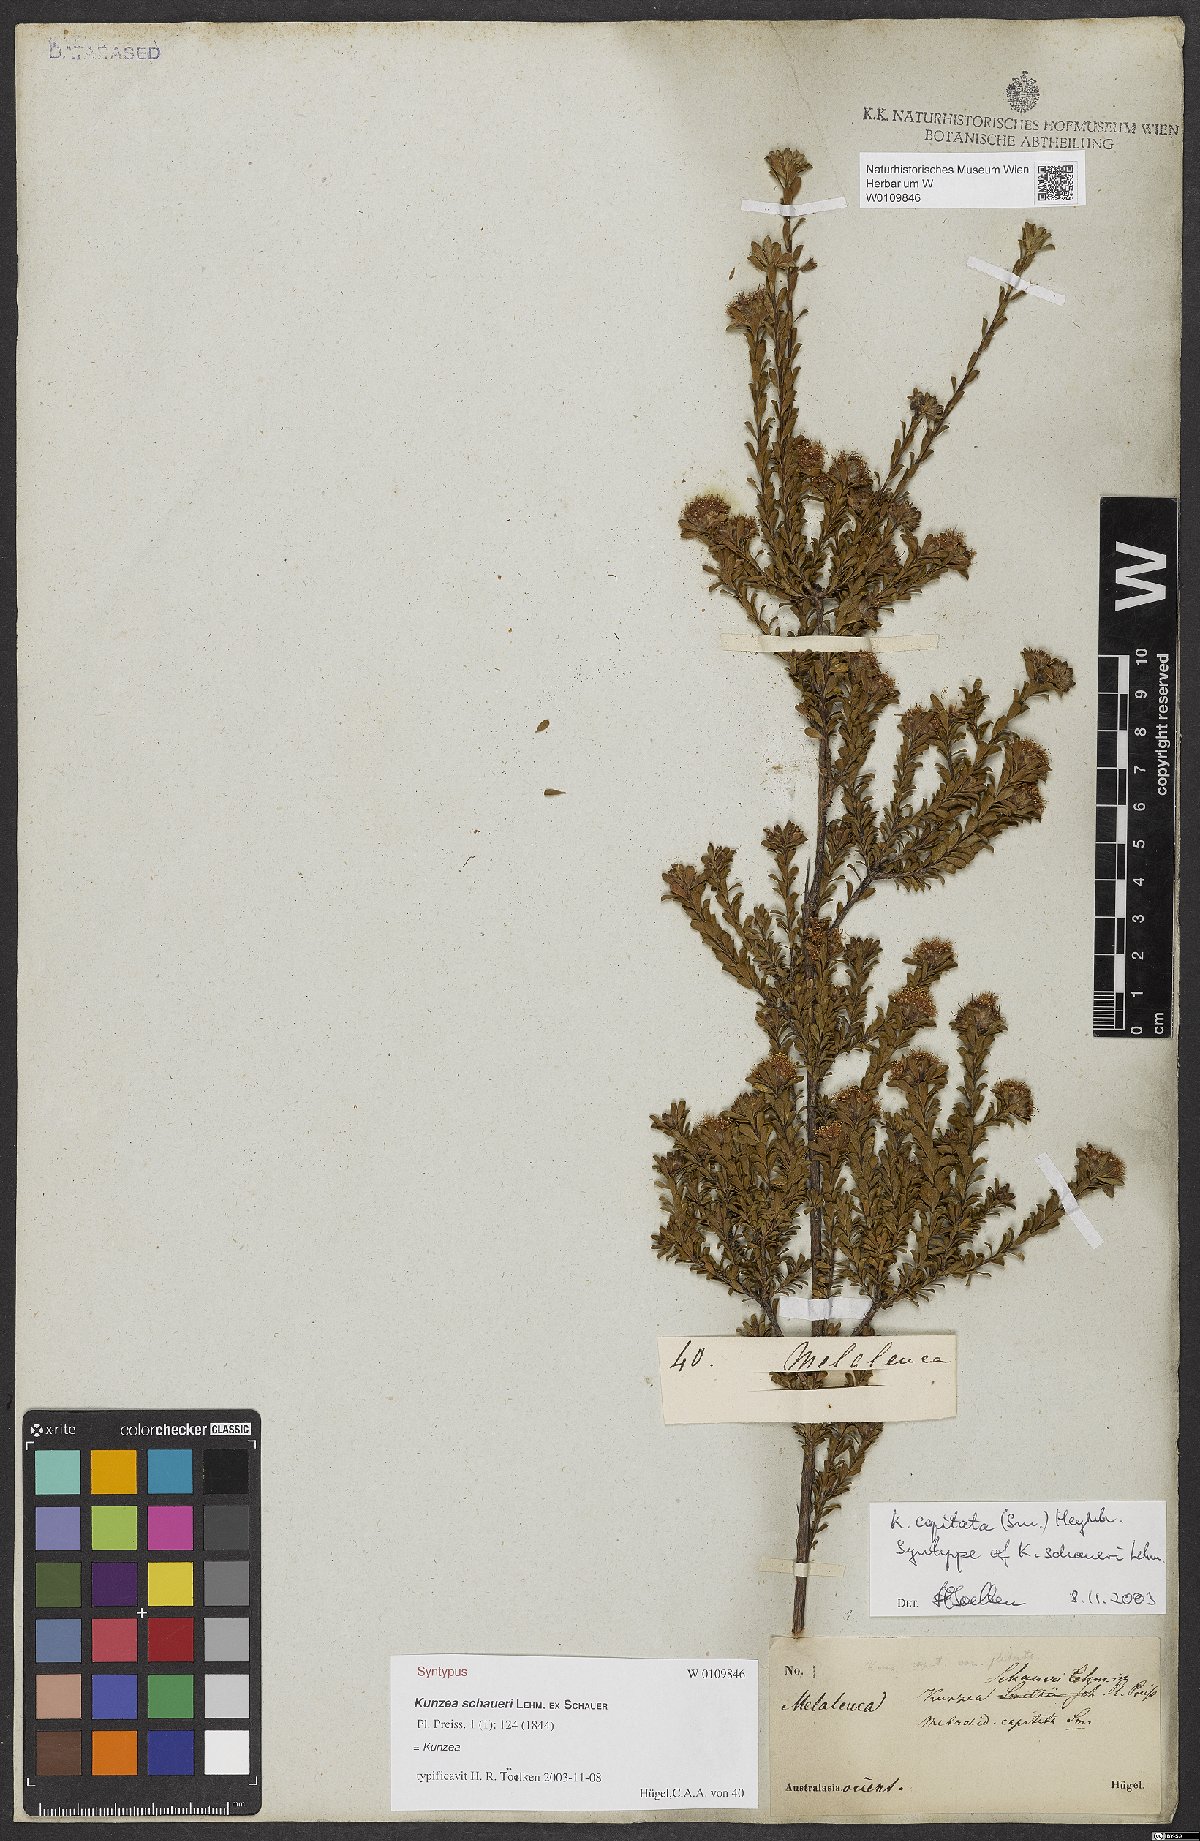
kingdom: Plantae
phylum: Tracheophyta
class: Magnoliopsida
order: Myrtales
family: Myrtaceae
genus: Kunzea
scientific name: Kunzea capitata
